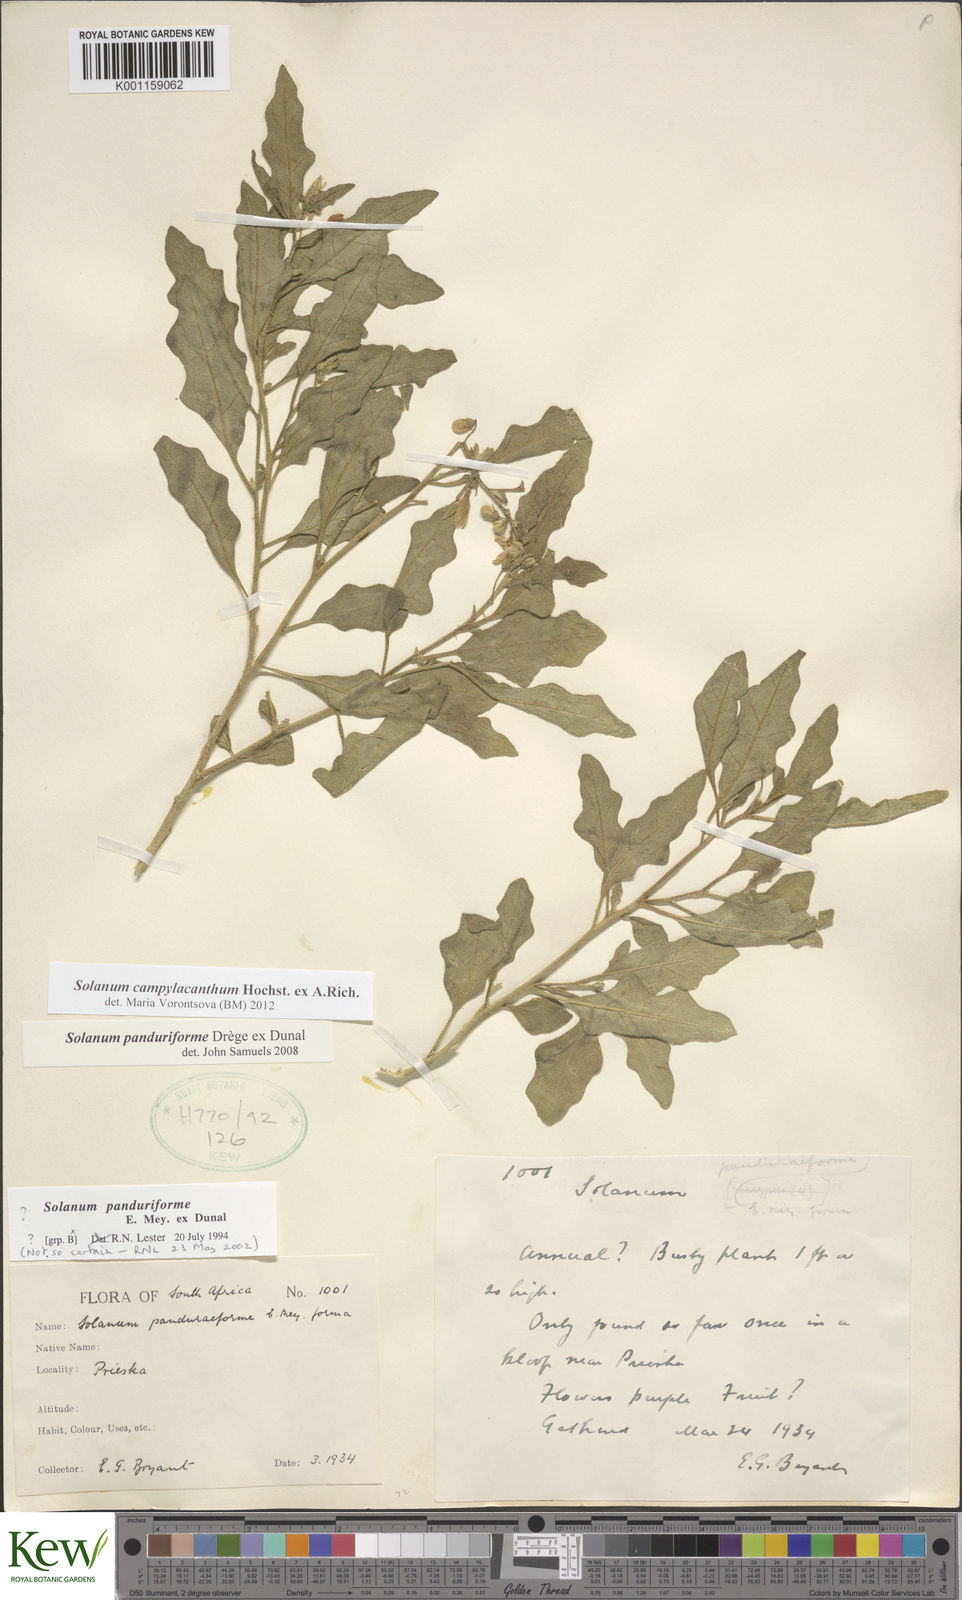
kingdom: Plantae
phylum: Tracheophyta
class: Magnoliopsida
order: Solanales
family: Solanaceae
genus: Solanum
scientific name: Solanum campylacanthum
